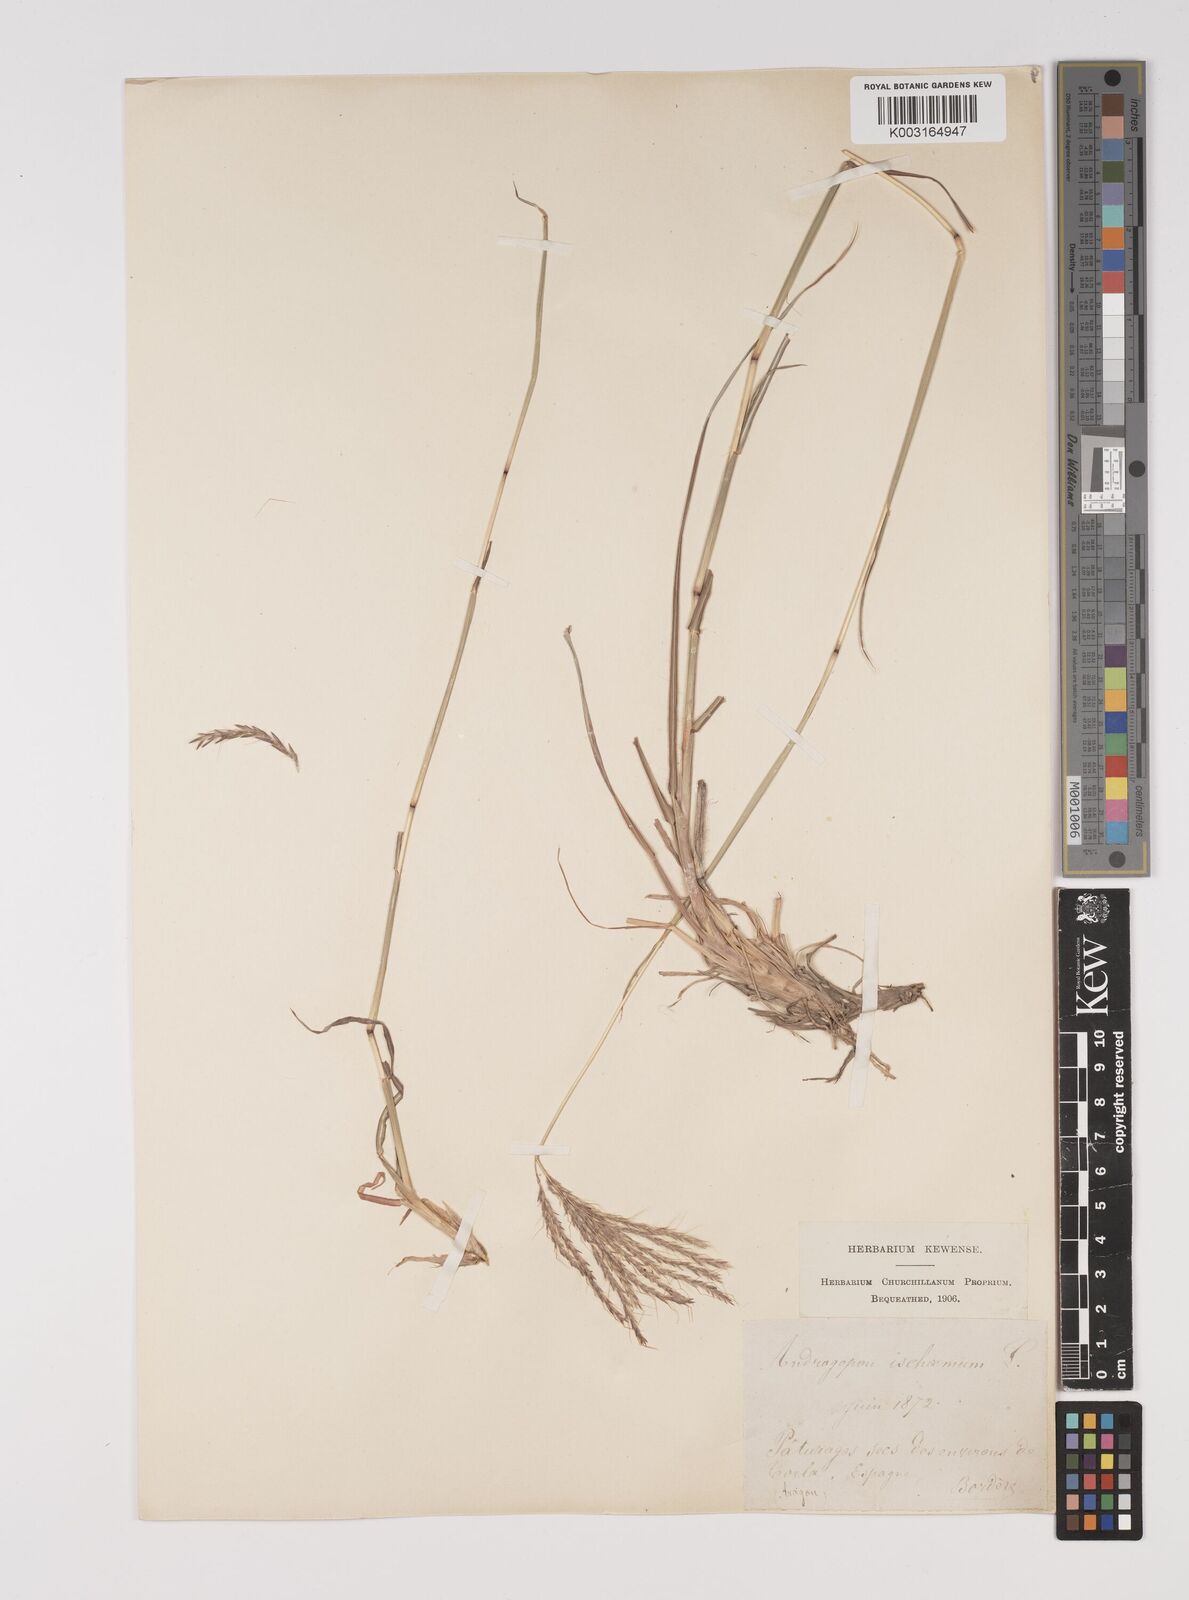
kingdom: Plantae
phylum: Tracheophyta
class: Liliopsida
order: Poales
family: Poaceae
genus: Bothriochloa
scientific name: Bothriochloa ischaemum
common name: Yellow bluestem
